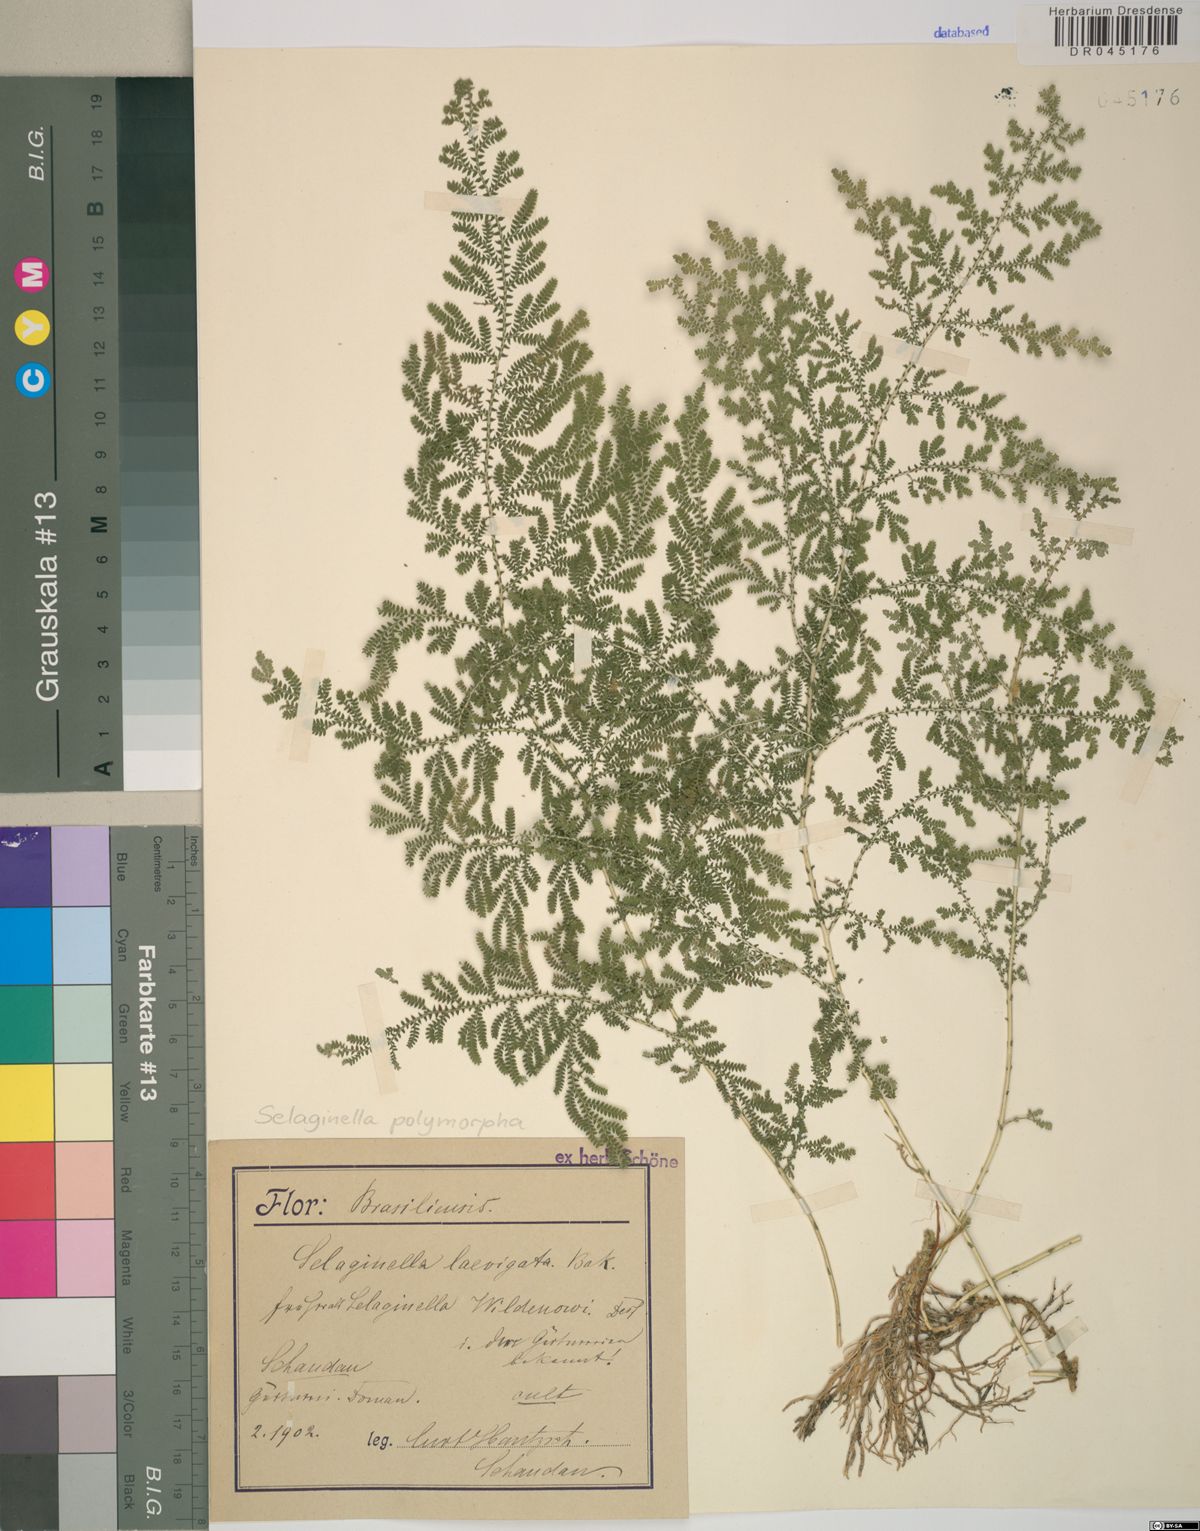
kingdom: Plantae
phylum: Tracheophyta
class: Lycopodiopsida
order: Selaginellales
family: Selaginellaceae
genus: Selaginella
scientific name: Selaginella polymorpha
